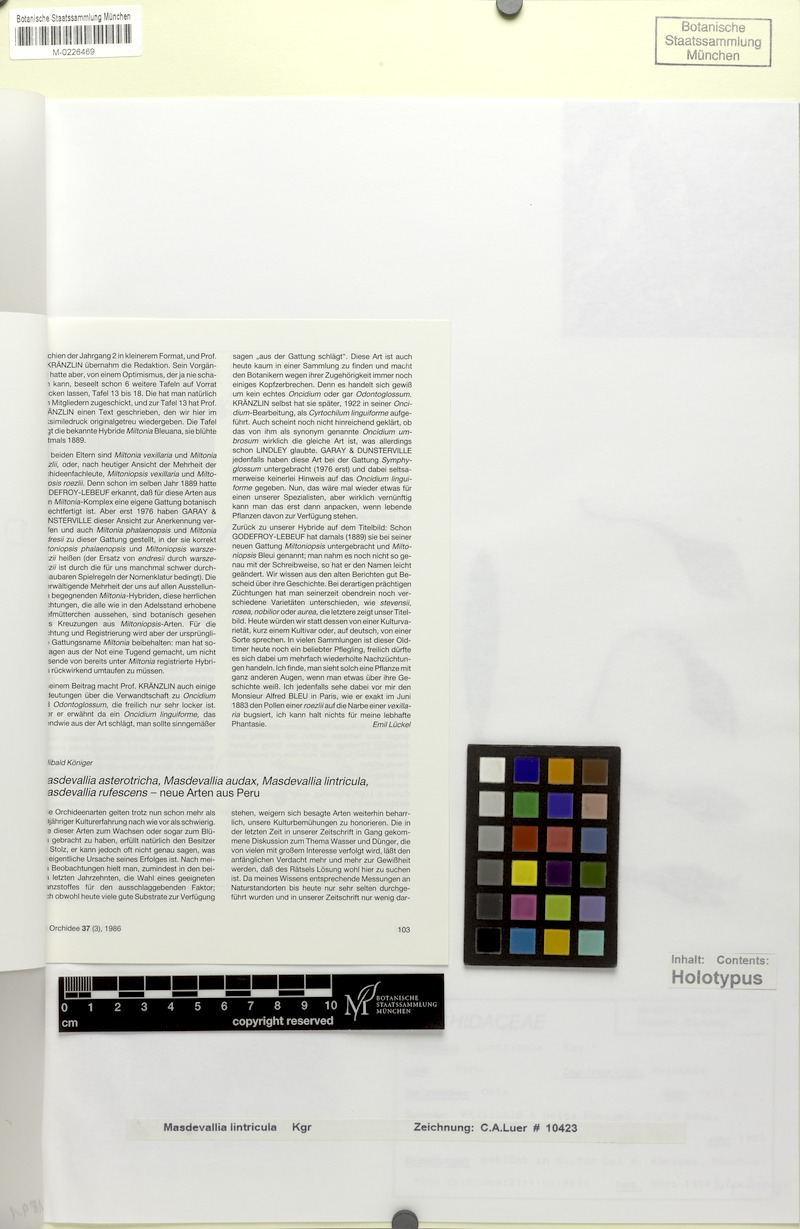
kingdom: Plantae
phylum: Tracheophyta
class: Liliopsida
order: Asparagales
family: Orchidaceae
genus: Masdevallia
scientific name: Masdevallia lintricula
